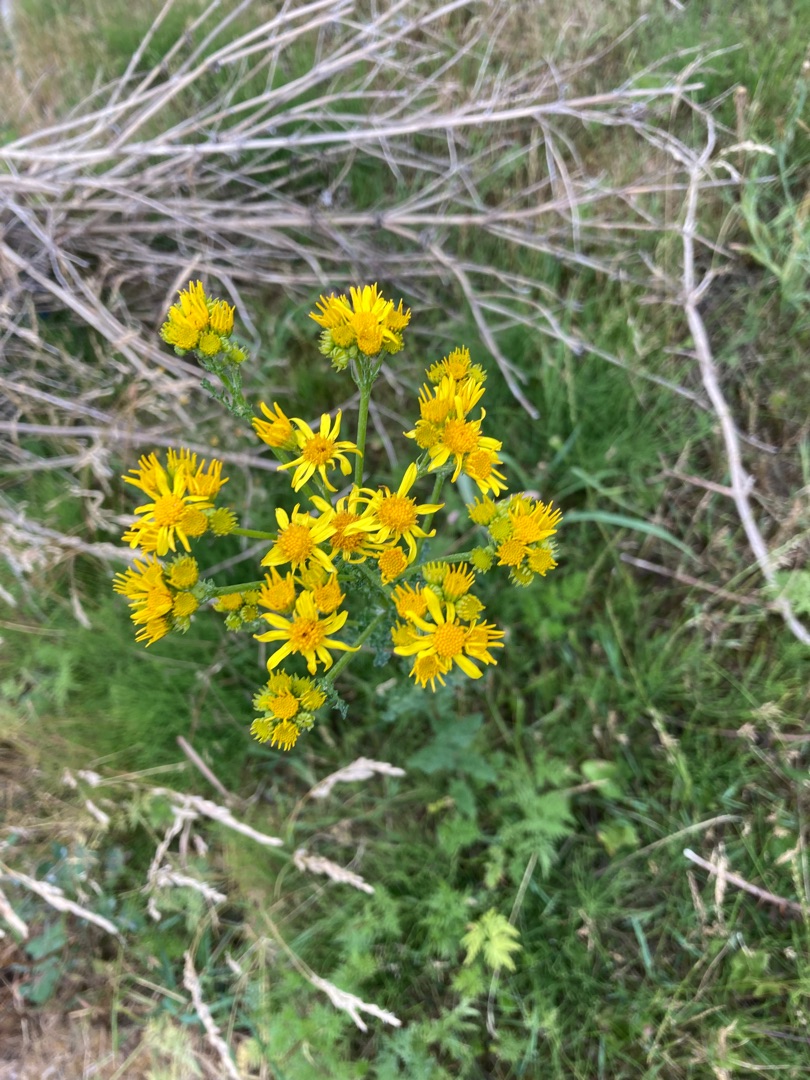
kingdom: Plantae
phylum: Tracheophyta
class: Magnoliopsida
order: Asterales
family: Asteraceae
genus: Jacobaea
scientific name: Jacobaea vulgaris
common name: Eng-brandbæger
